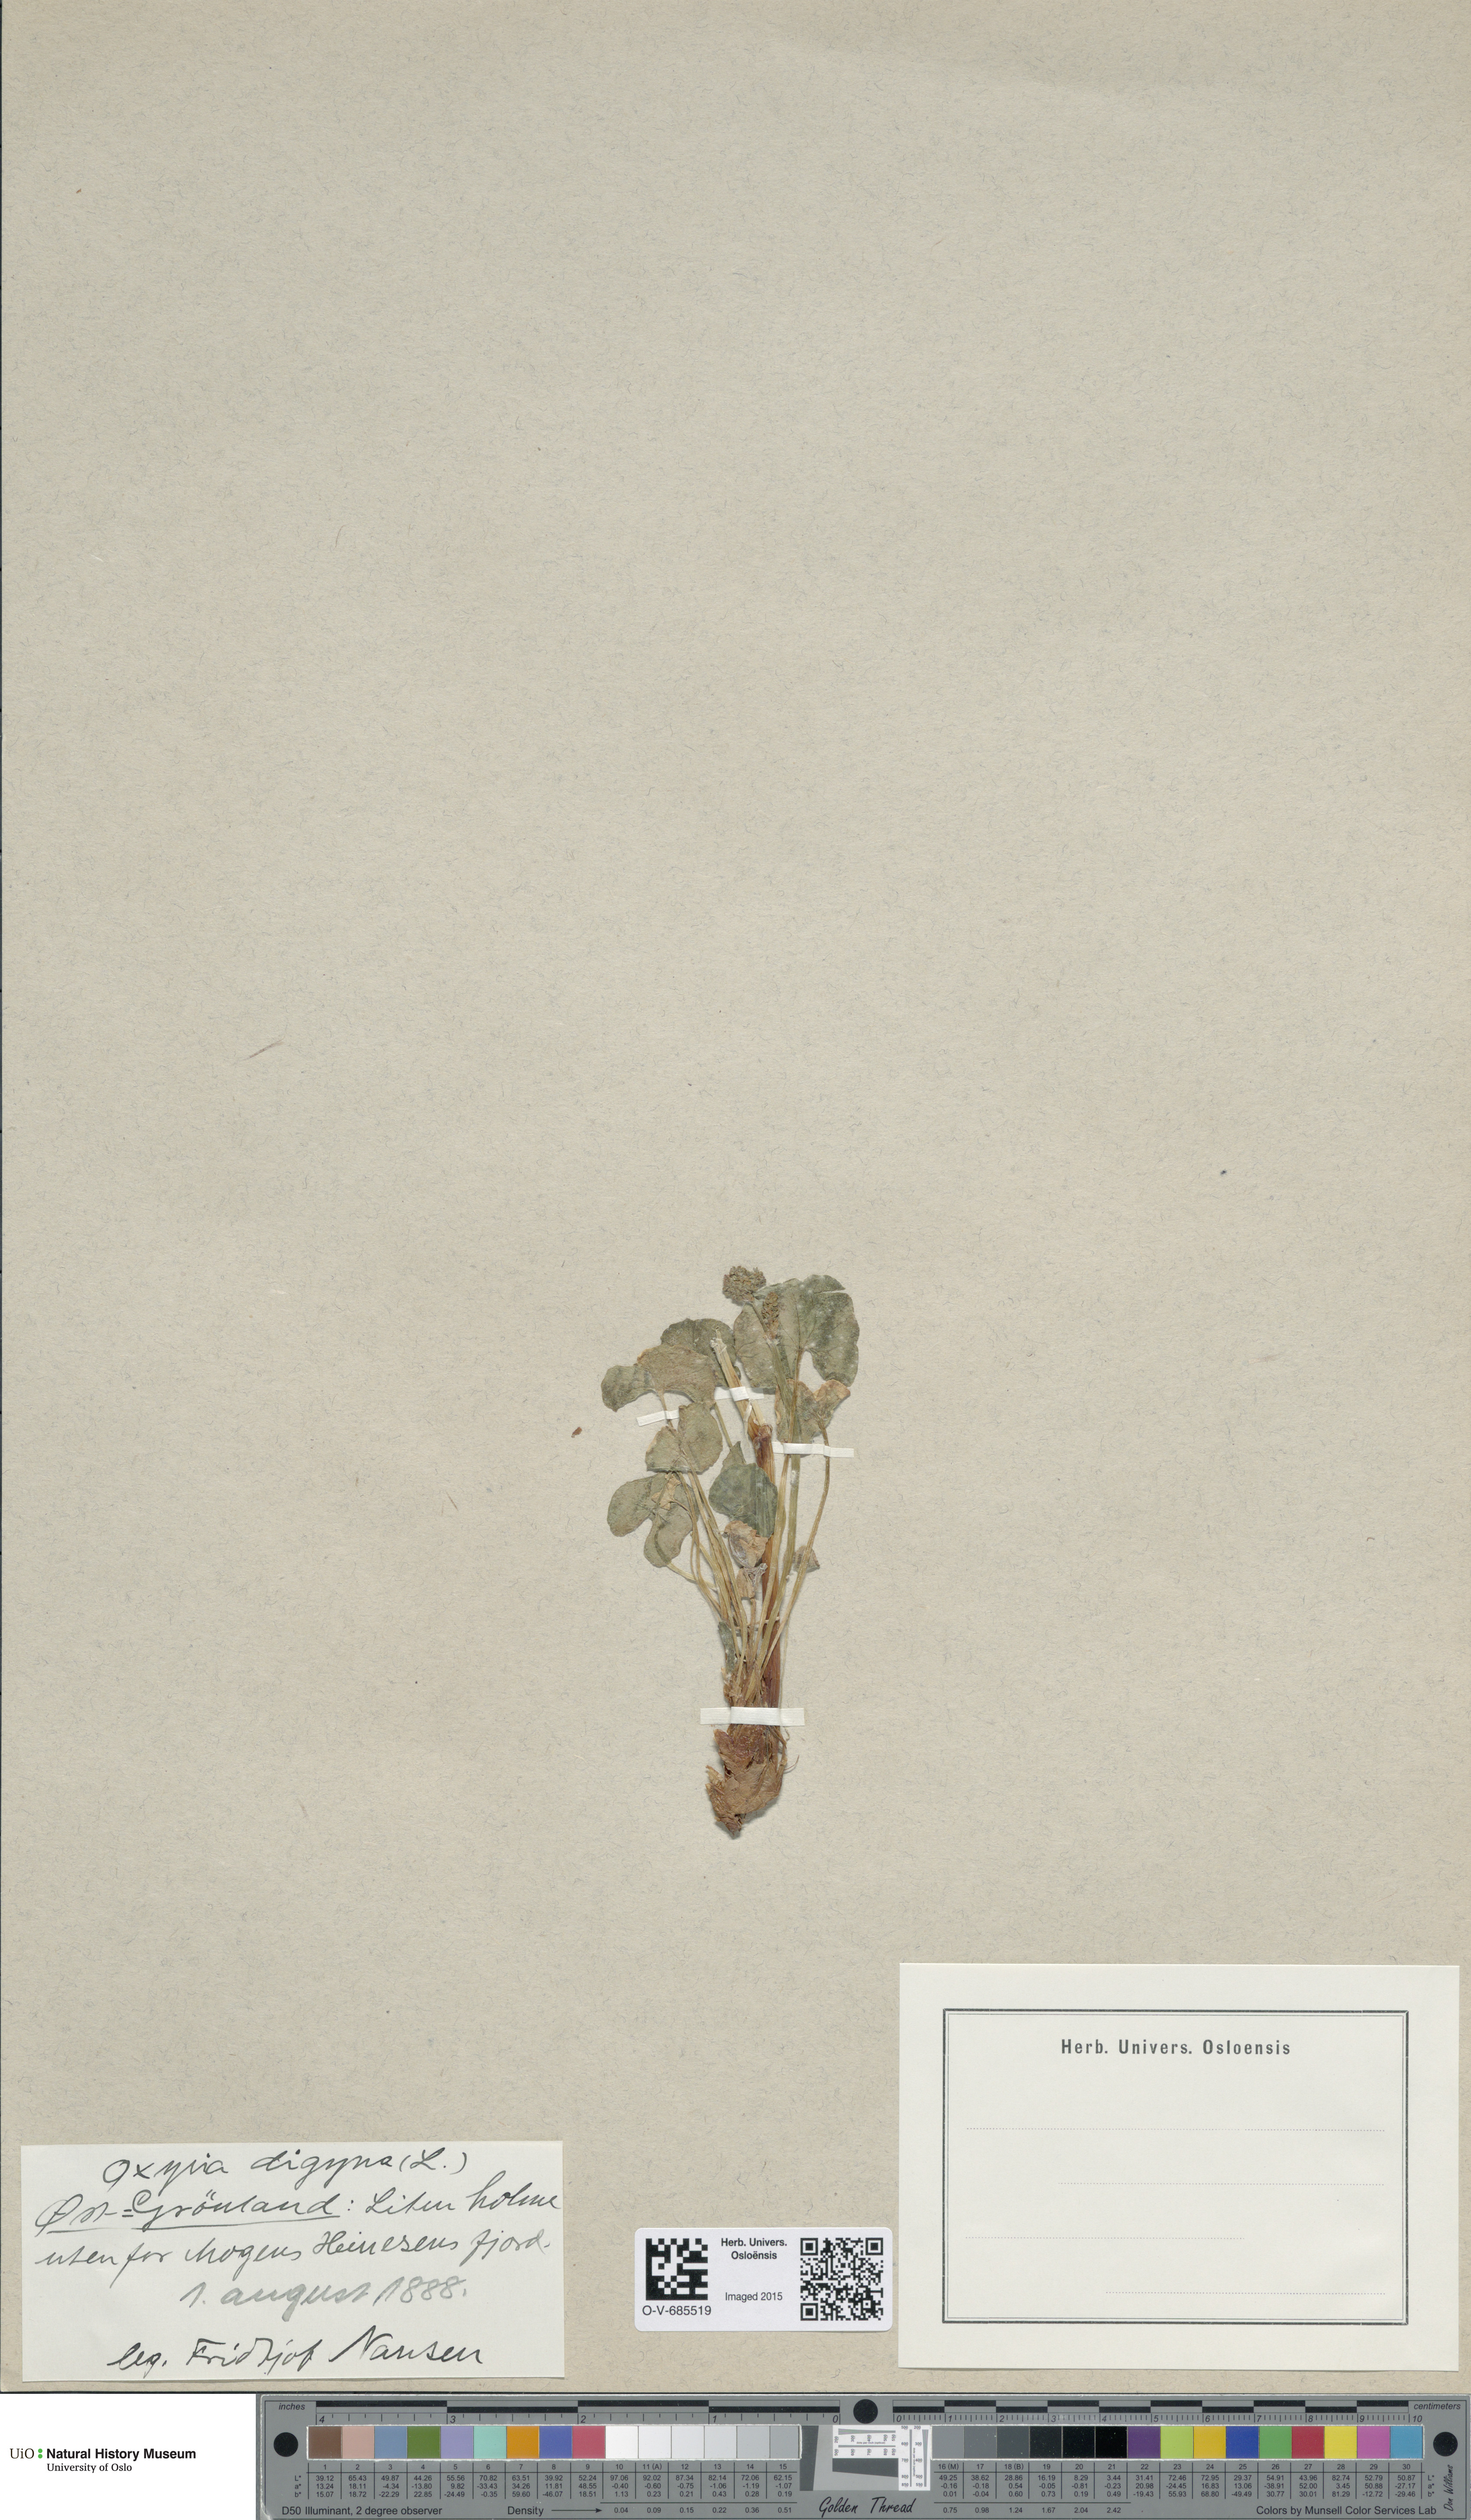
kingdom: Plantae
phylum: Tracheophyta
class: Magnoliopsida
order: Caryophyllales
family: Polygonaceae
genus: Oxyria
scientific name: Oxyria digyna
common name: Alpine mountain-sorrel
